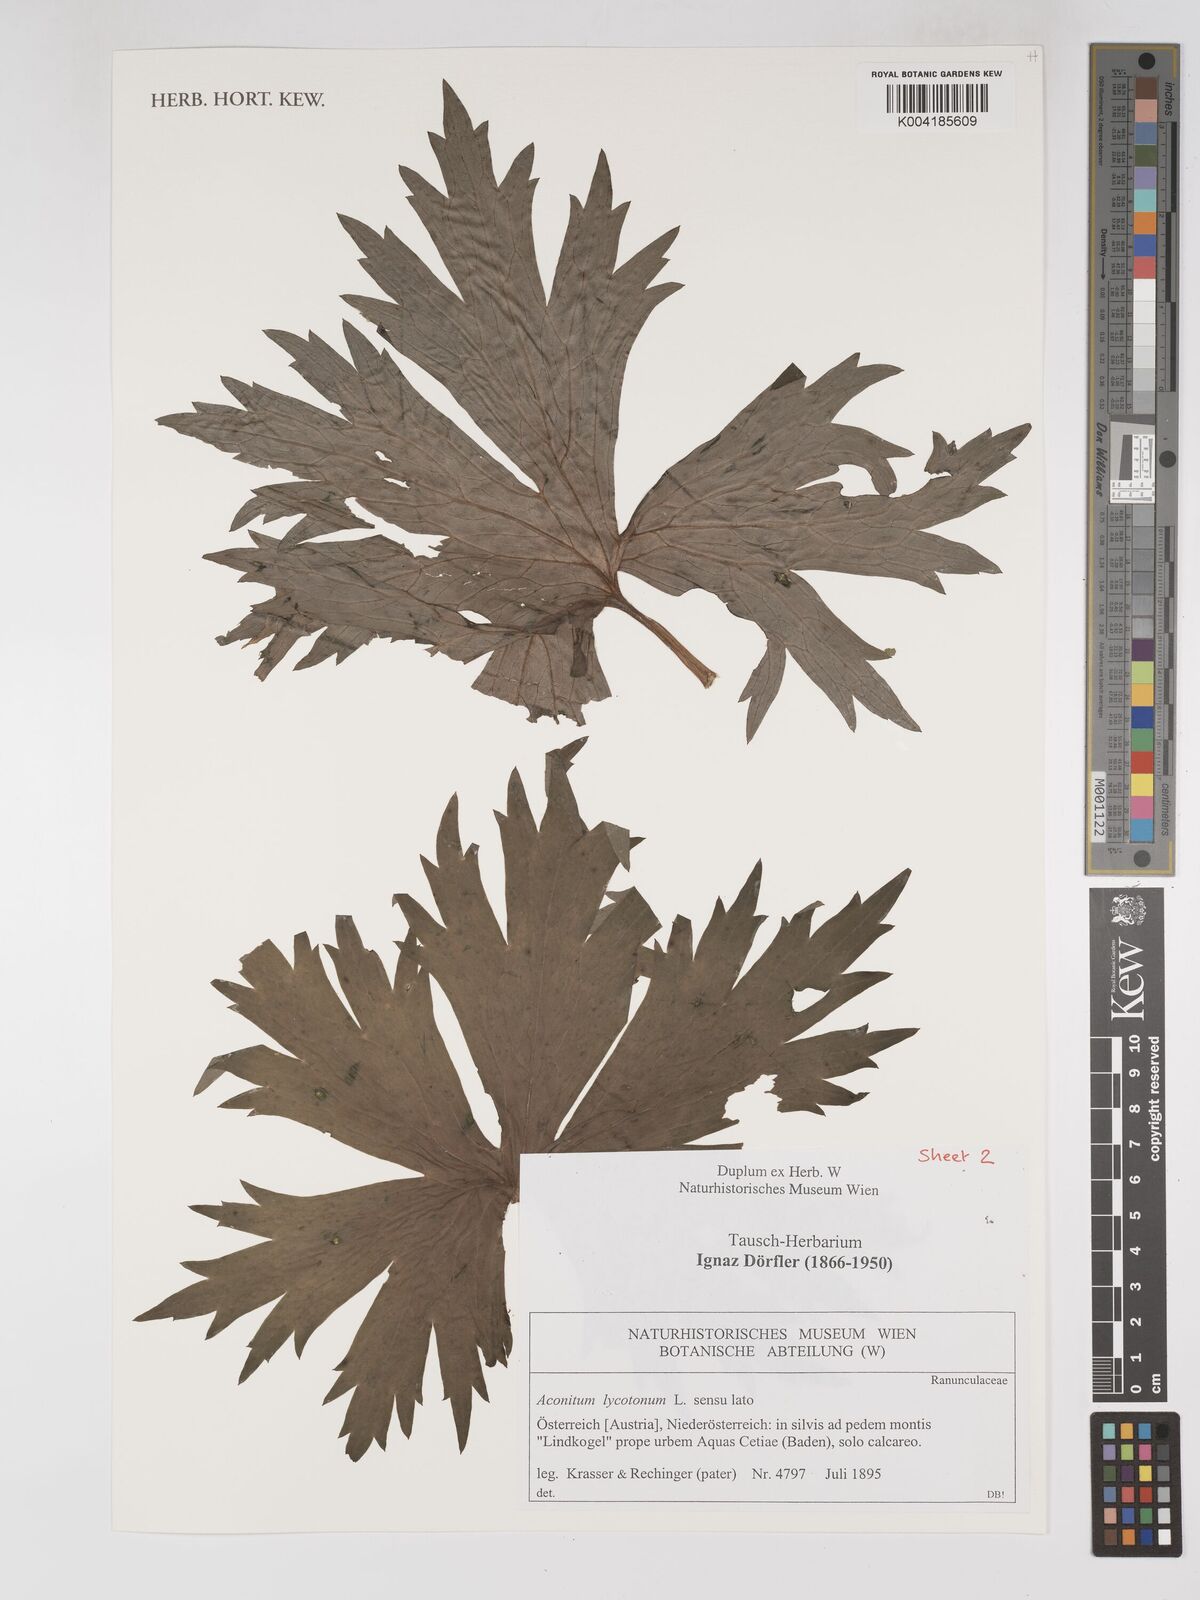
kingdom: Plantae
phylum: Tracheophyta
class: Magnoliopsida
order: Ranunculales
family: Ranunculaceae
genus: Aconitum
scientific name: Aconitum lycoctonum
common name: Wolf's-bane
